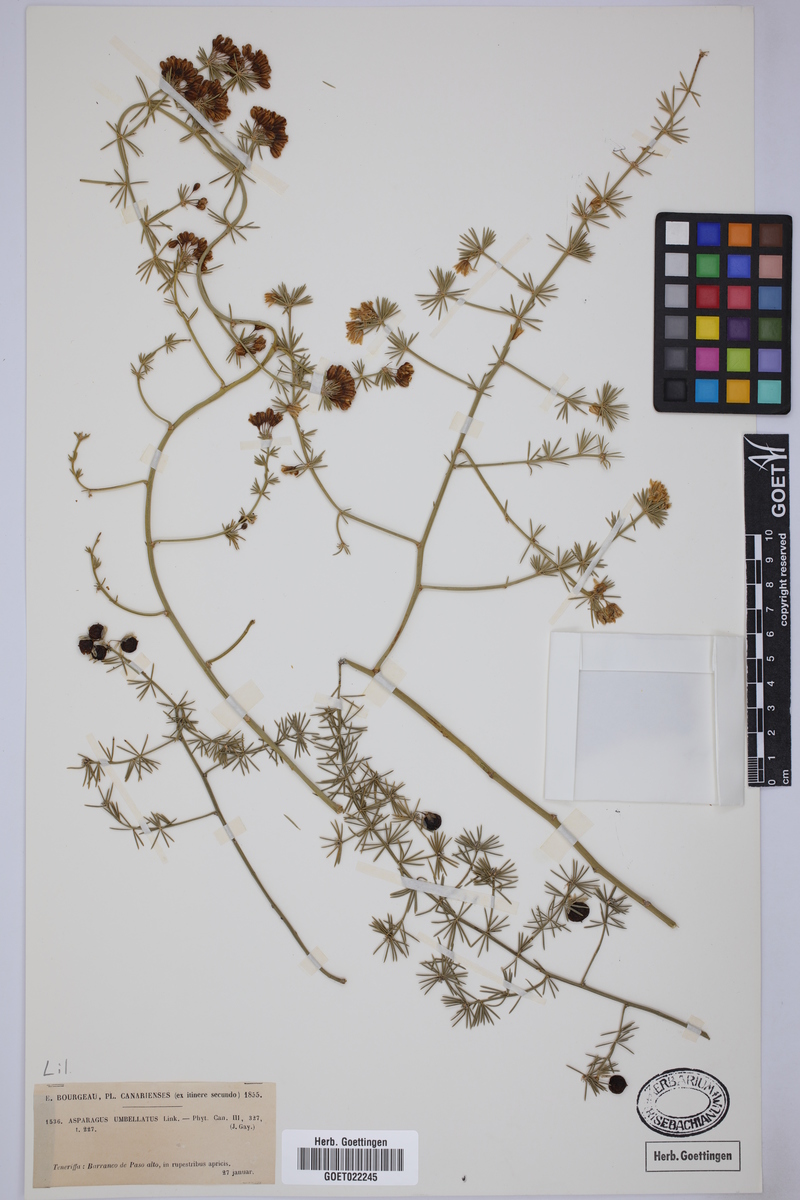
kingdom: Plantae
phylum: Tracheophyta
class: Liliopsida
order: Asparagales
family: Asparagaceae
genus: Asparagus
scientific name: Asparagus umbellatus
